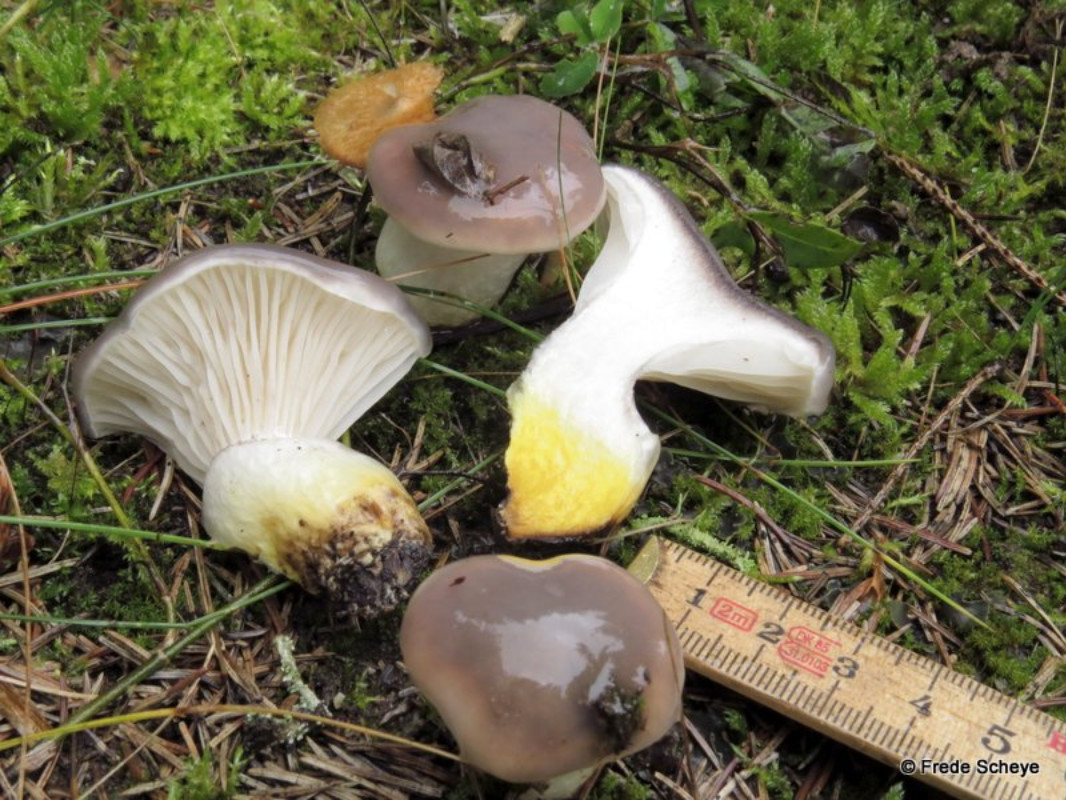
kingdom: Fungi
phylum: Basidiomycota
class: Agaricomycetes
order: Boletales
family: Gomphidiaceae
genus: Gomphidius
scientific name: Gomphidius glutinosus
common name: grå slimslør
